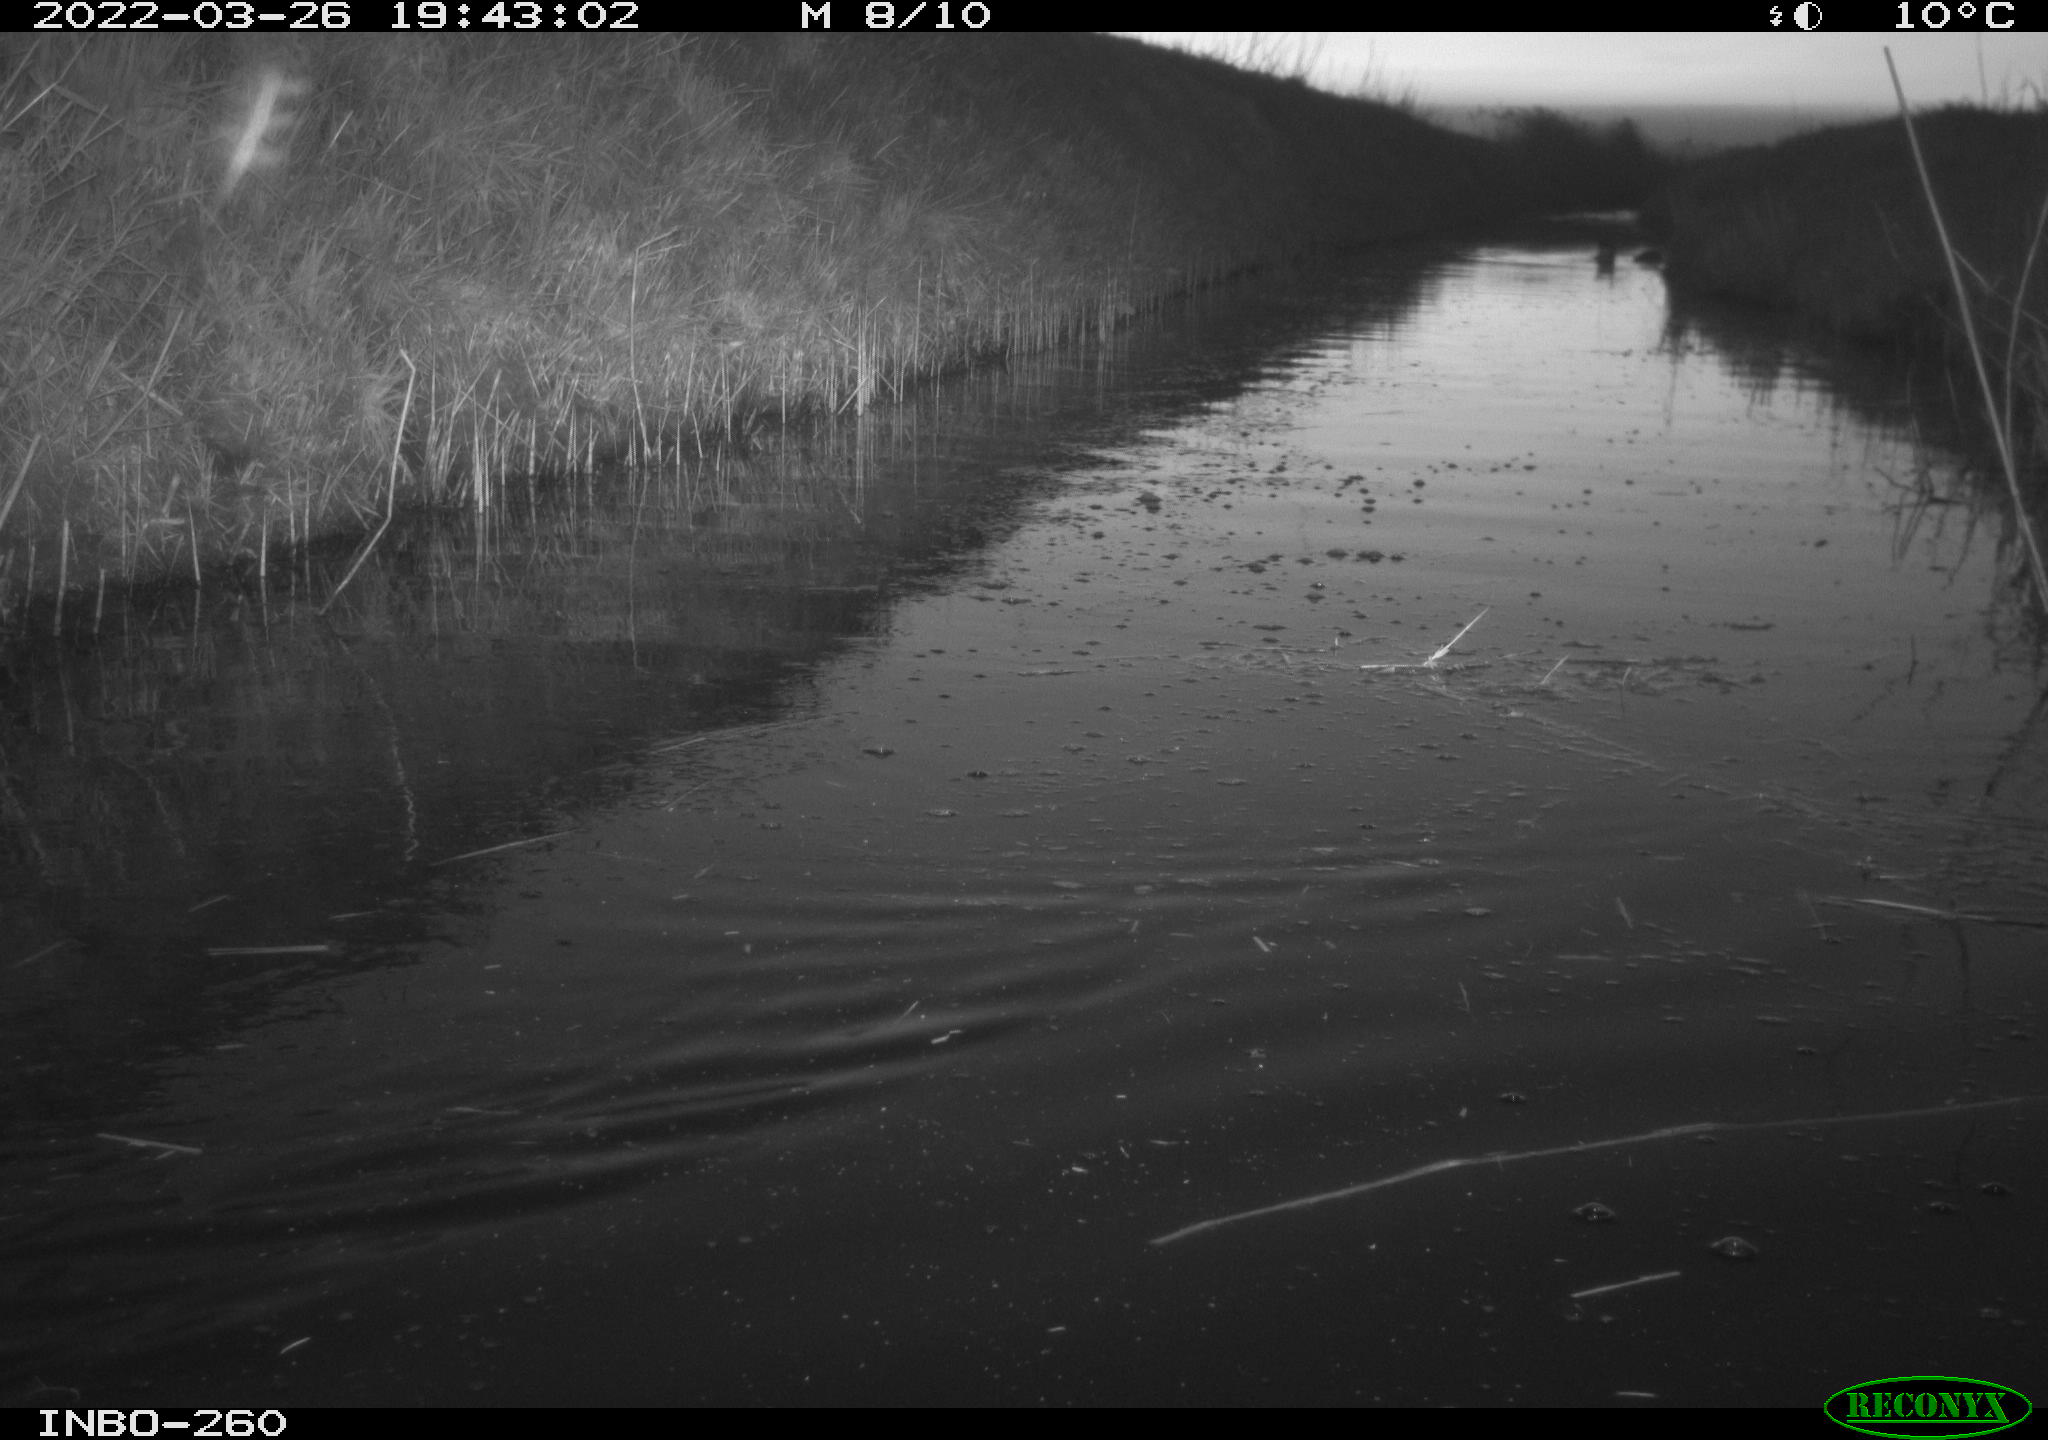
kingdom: Animalia
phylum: Chordata
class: Aves
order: Gruiformes
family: Rallidae
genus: Fulica
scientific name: Fulica atra
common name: Eurasian coot
